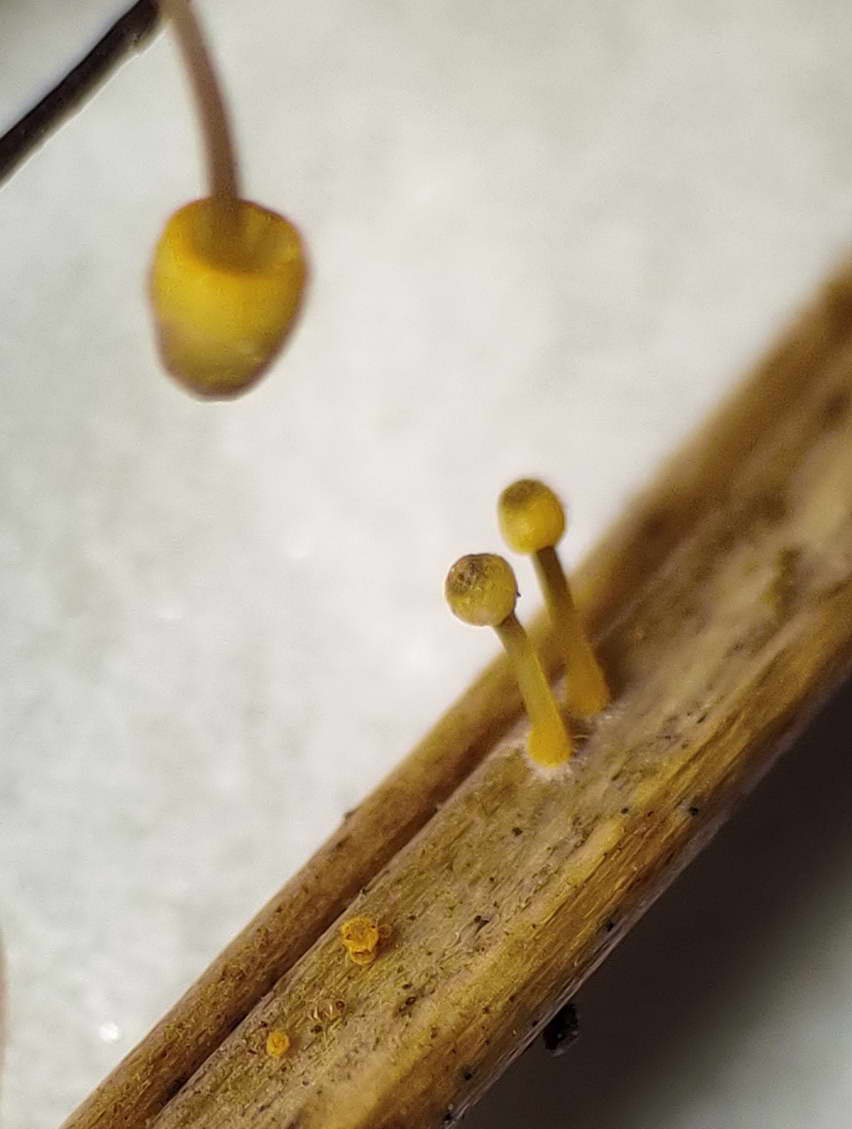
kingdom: Fungi
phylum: Basidiomycota
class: Agaricomycetes
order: Agaricales
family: Mycenaceae
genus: Mycena
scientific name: Mycena pterigena
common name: bregne-huesvamp
